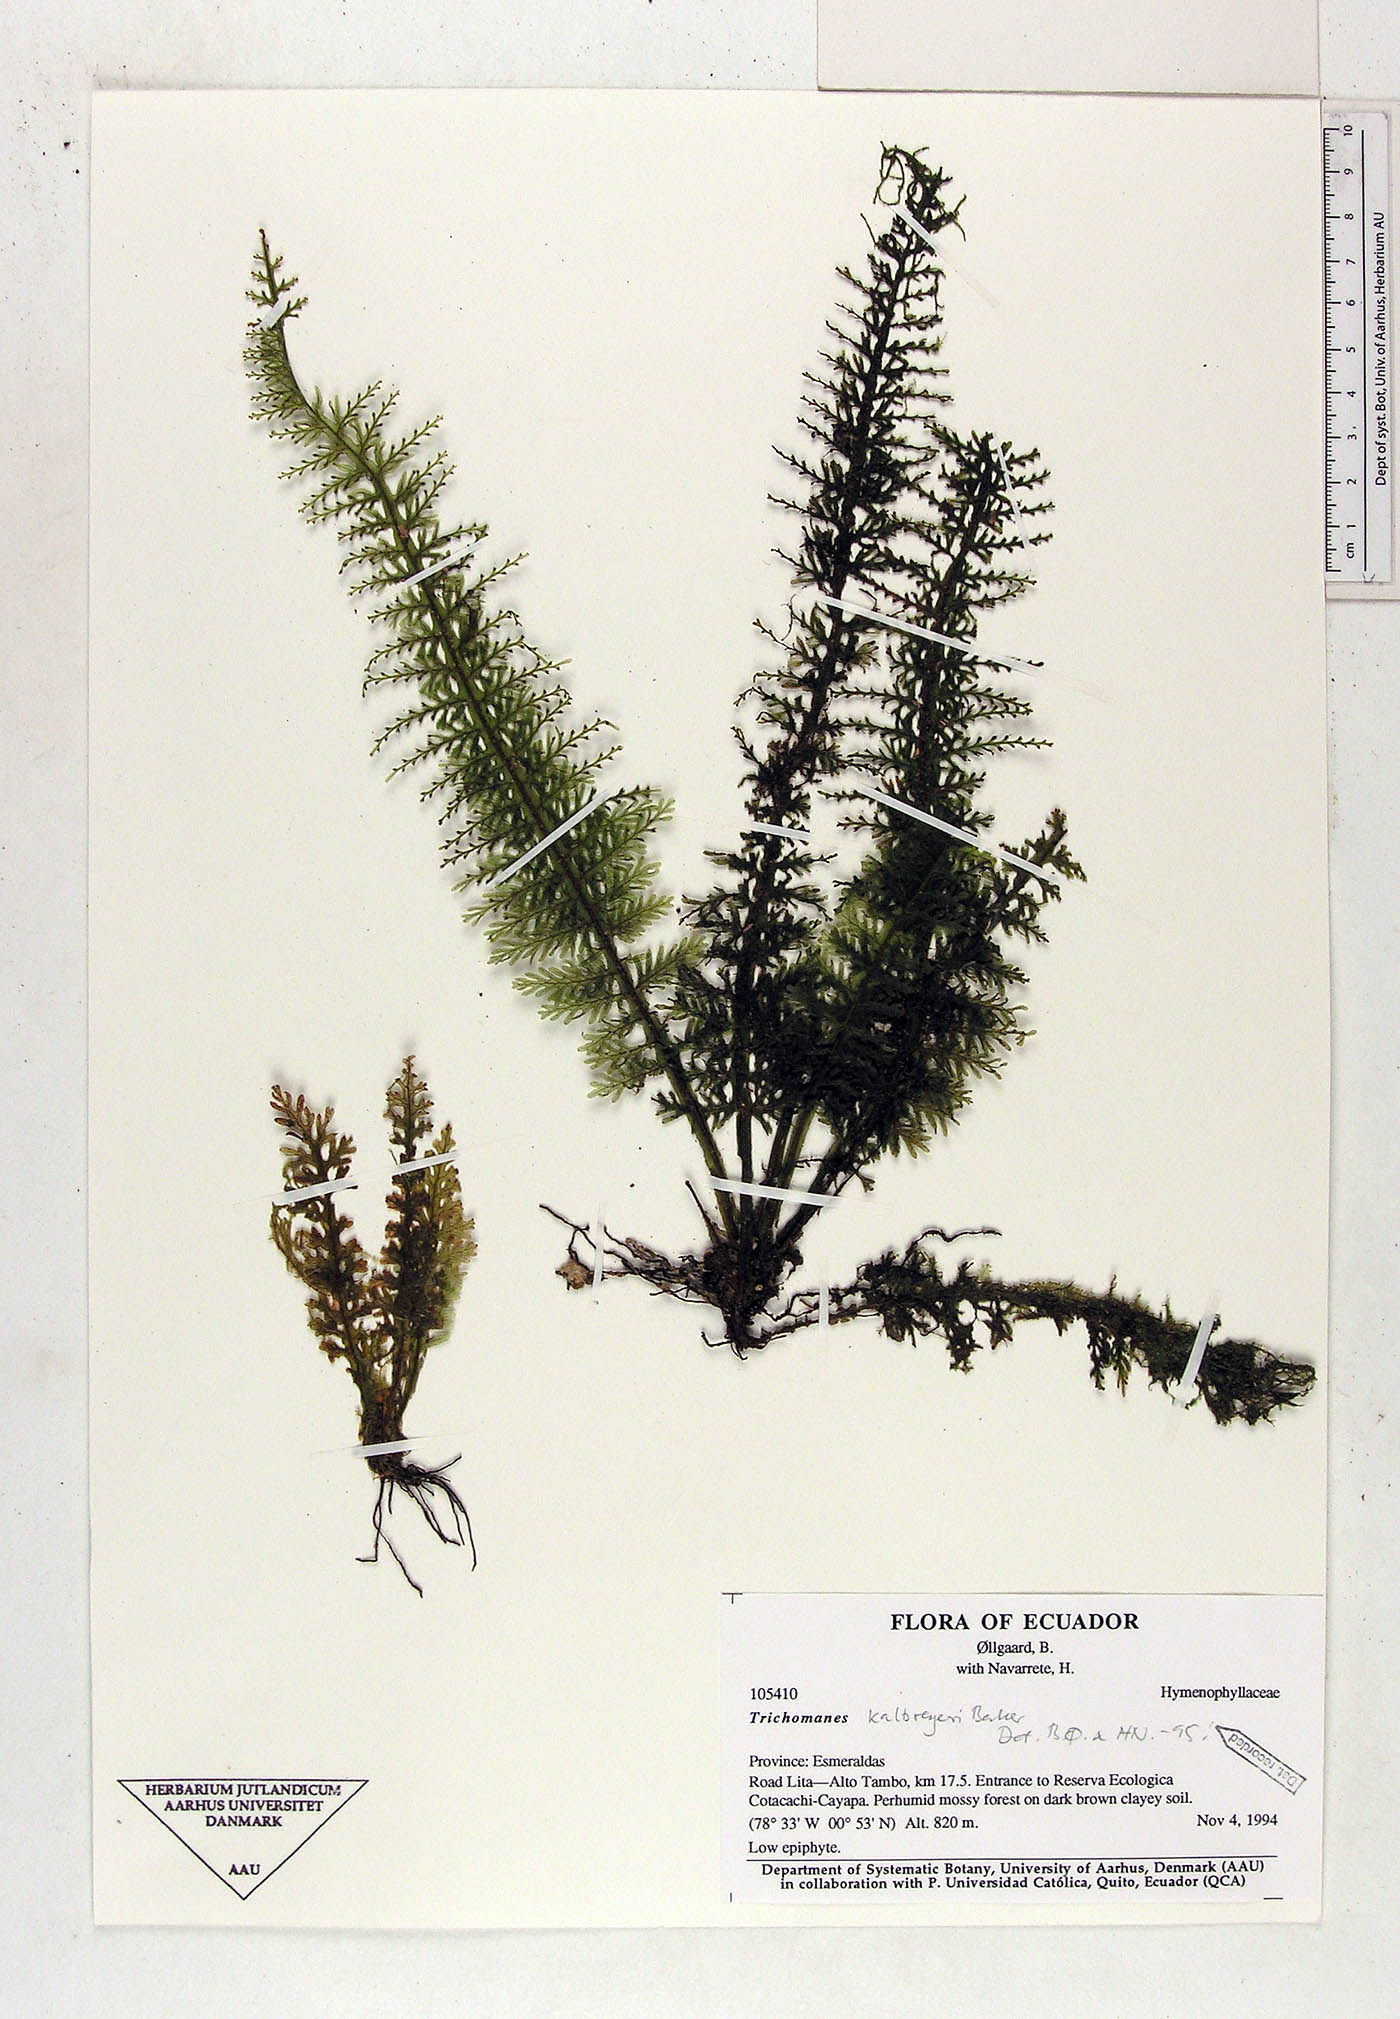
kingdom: Plantae
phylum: Tracheophyta
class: Polypodiopsida
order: Hymenophyllales
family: Hymenophyllaceae
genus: Trichomanes
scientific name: Trichomanes kalbreyeri
